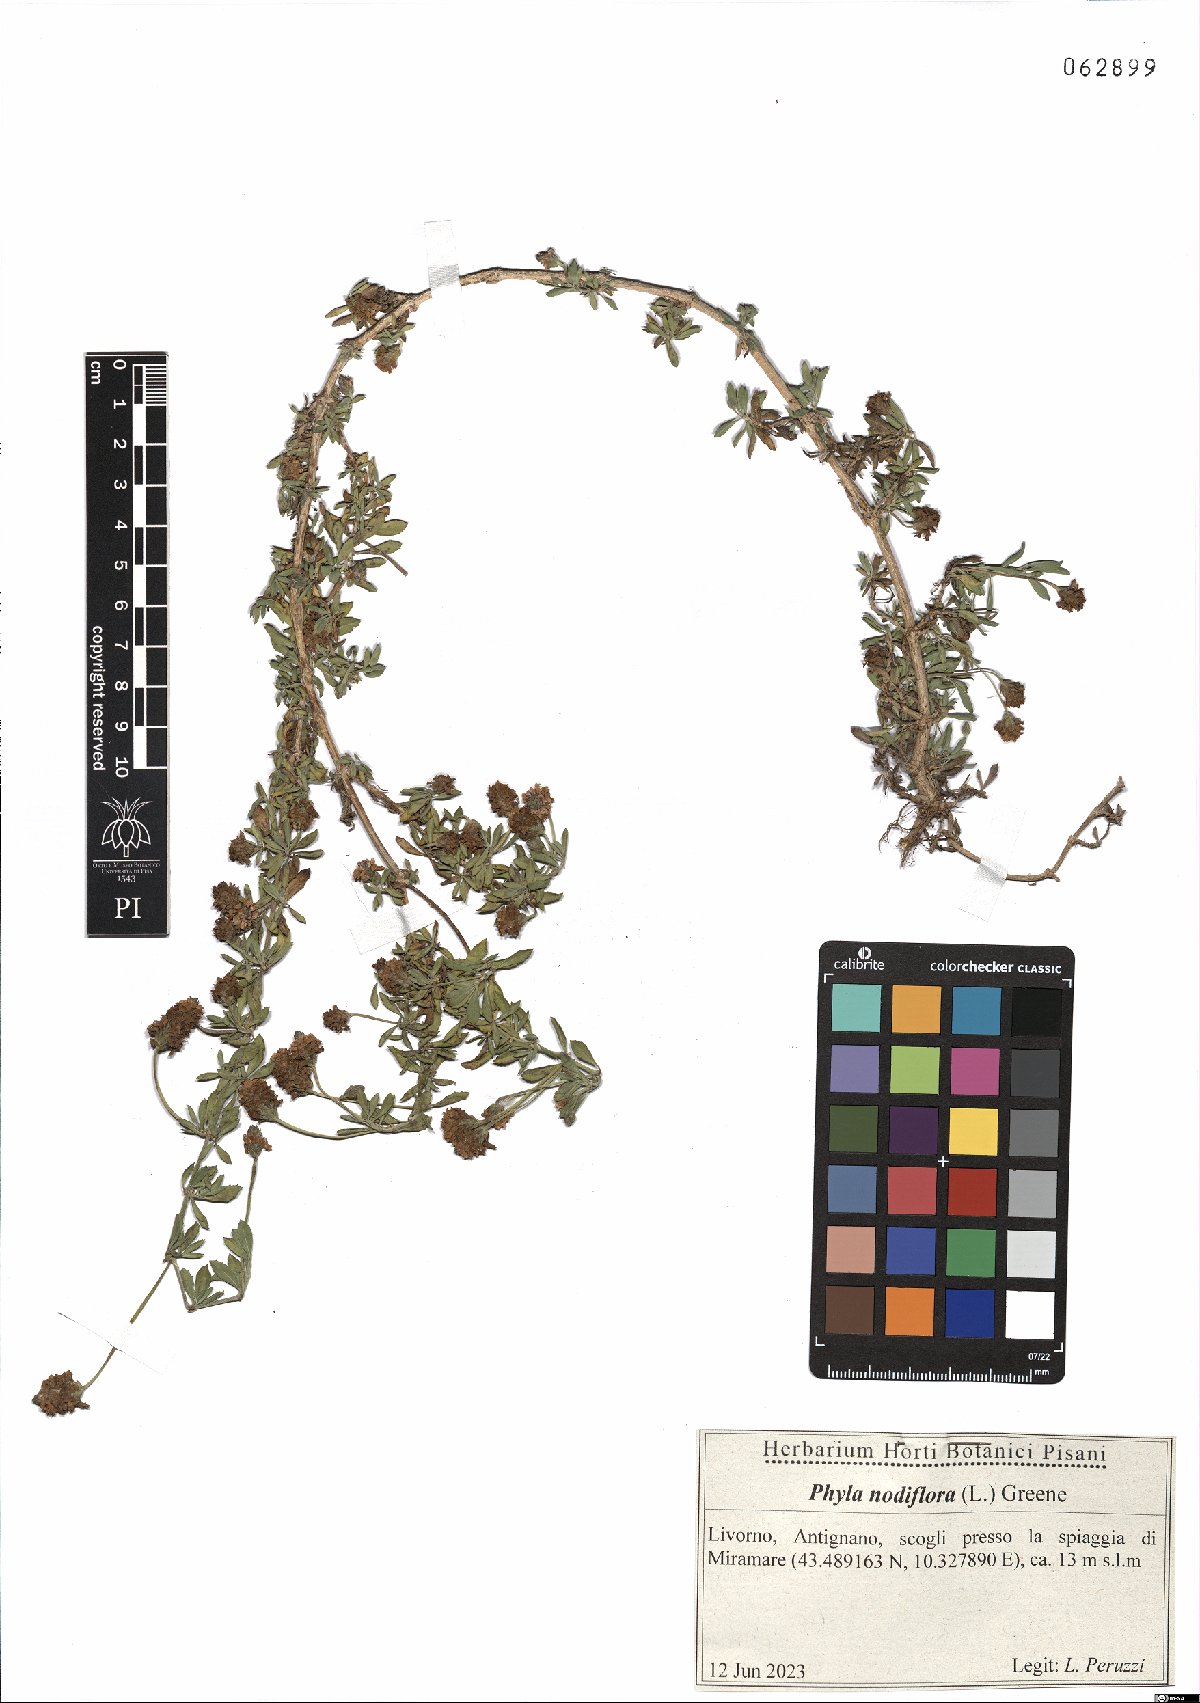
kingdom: Plantae
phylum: Tracheophyta
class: Magnoliopsida
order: Lamiales
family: Verbenaceae
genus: Phyla
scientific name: Phyla nodiflora
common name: Frogfruit
